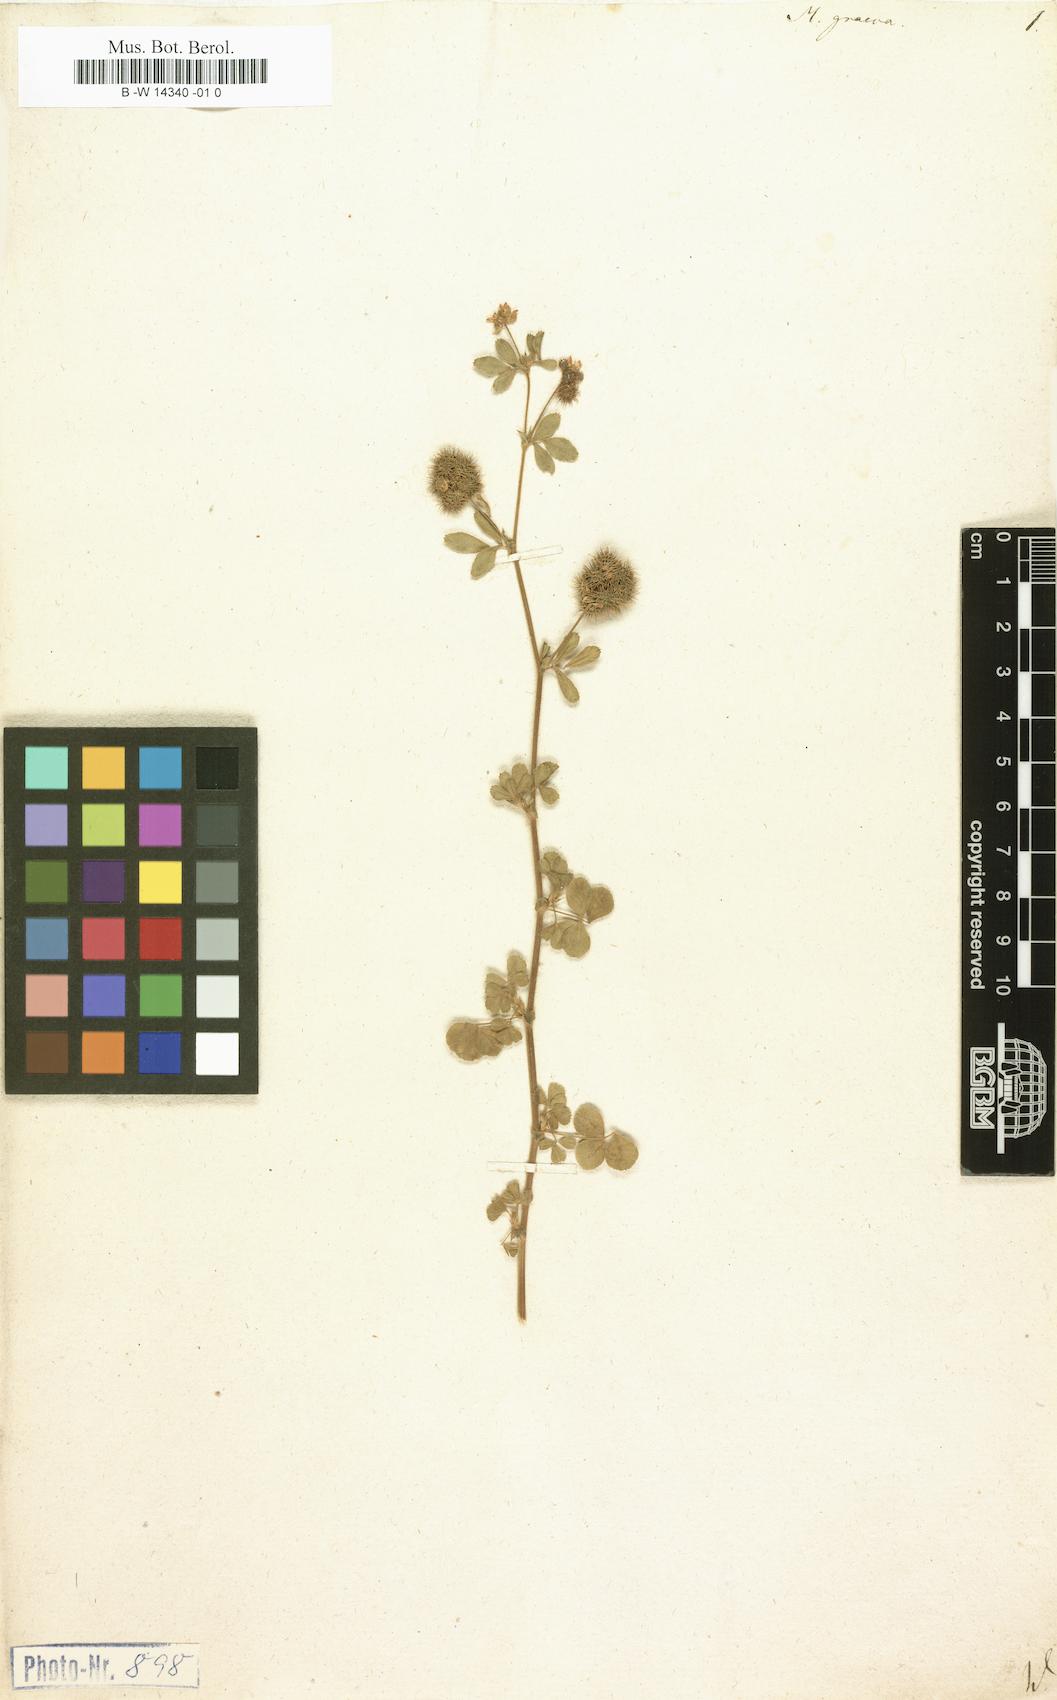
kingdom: Plantae
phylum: Tracheophyta
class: Magnoliopsida
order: Fabales
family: Fabaceae
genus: Medicago
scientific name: Medicago minima
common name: Little bur-clover
